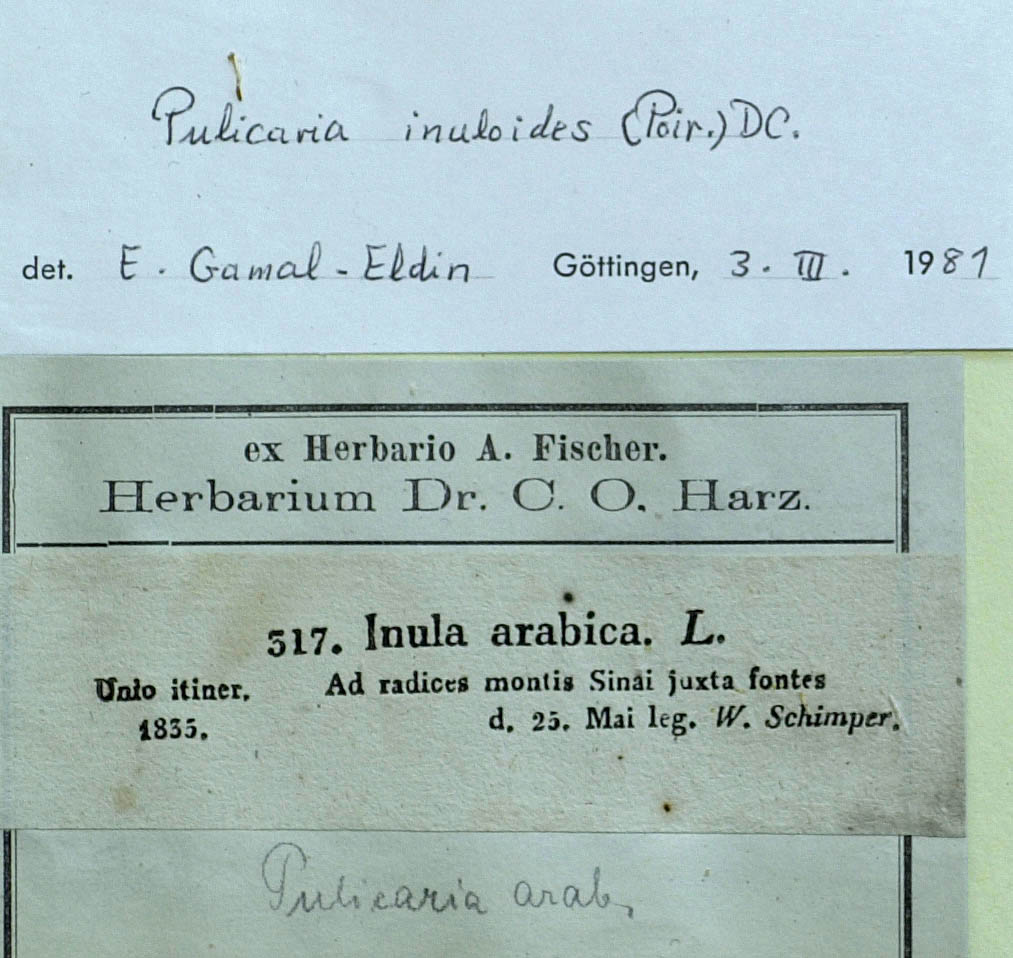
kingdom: Plantae
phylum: Tracheophyta
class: Magnoliopsida
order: Asterales
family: Asteraceae
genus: Pulicaria
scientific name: Pulicaria inuloides
